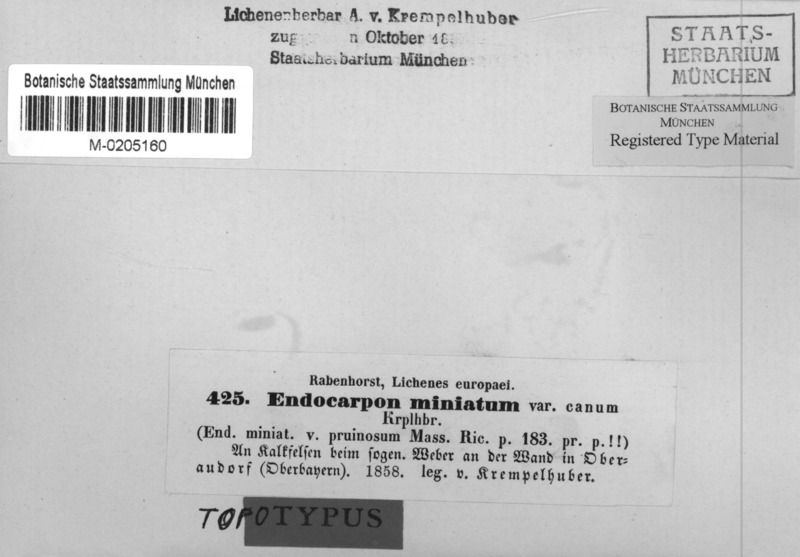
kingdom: Fungi
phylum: Ascomycota
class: Eurotiomycetes
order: Verrucariales
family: Verrucariaceae
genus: Dermatocarpon
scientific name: Dermatocarpon miniatum
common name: Leather lichen
